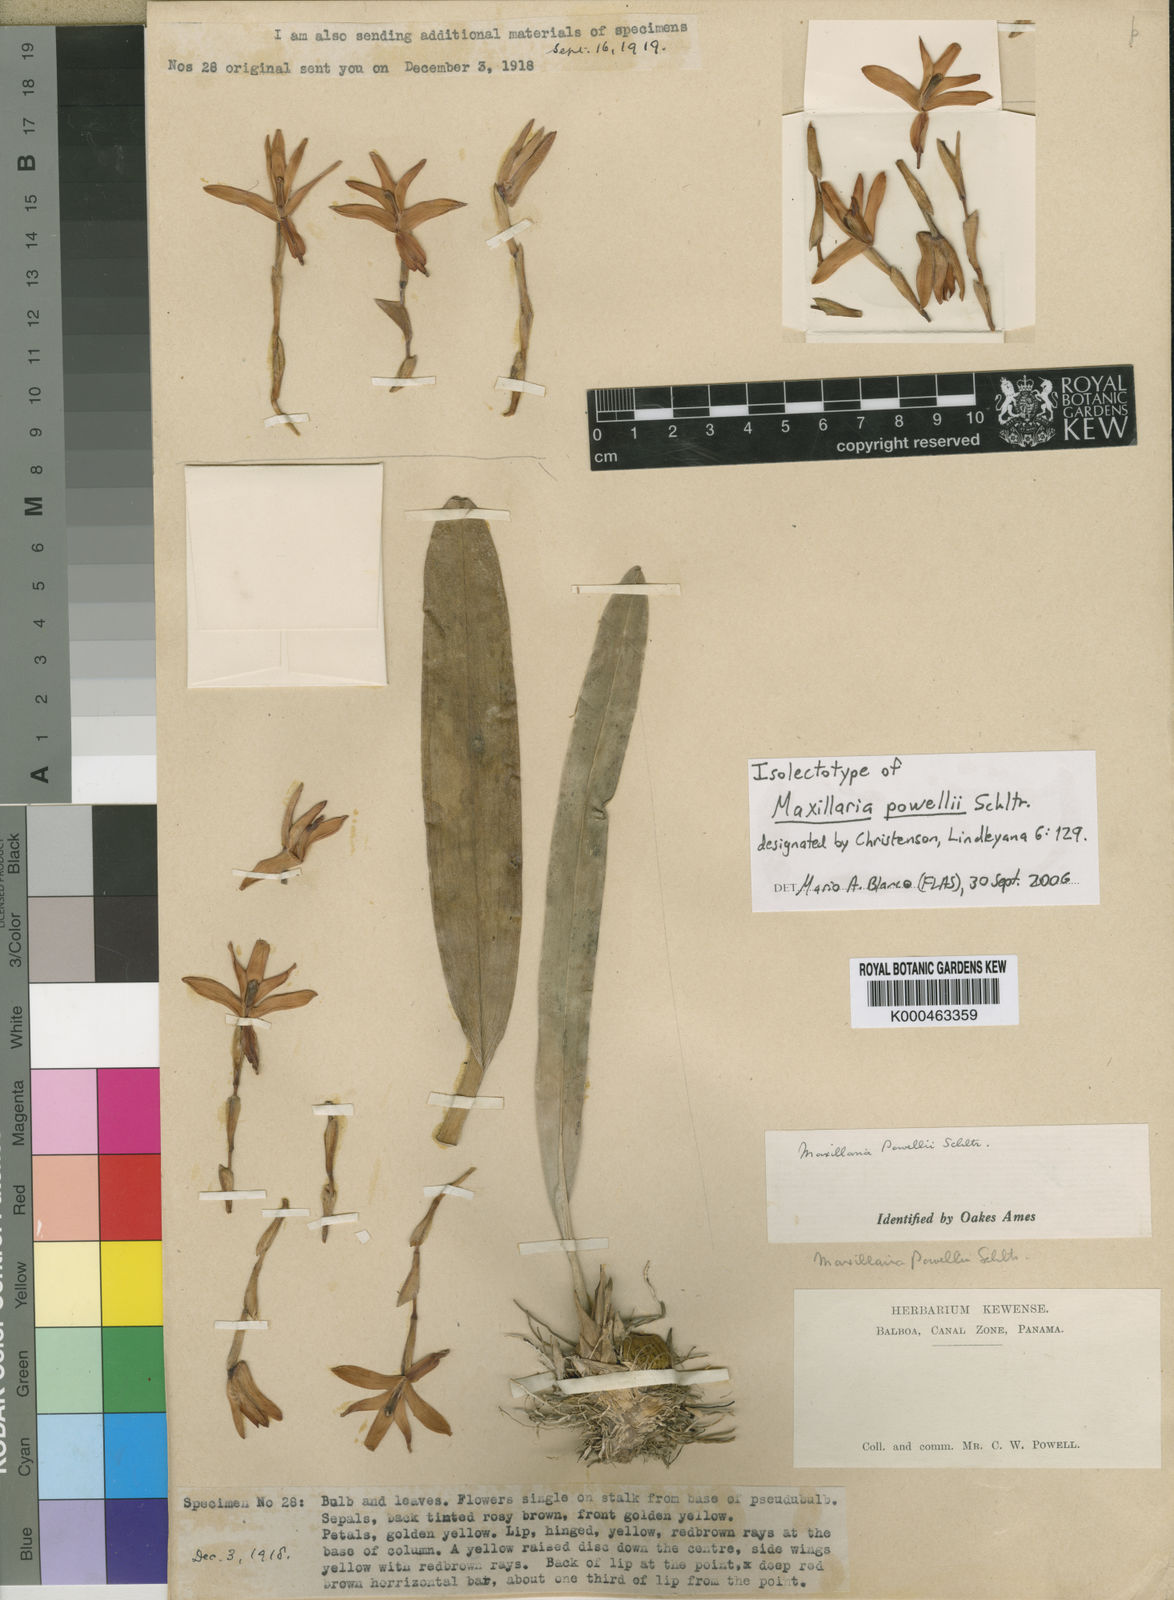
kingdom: Plantae
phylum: Tracheophyta
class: Liliopsida
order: Asparagales
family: Orchidaceae
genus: Maxillaria
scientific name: Maxillaria powellii
